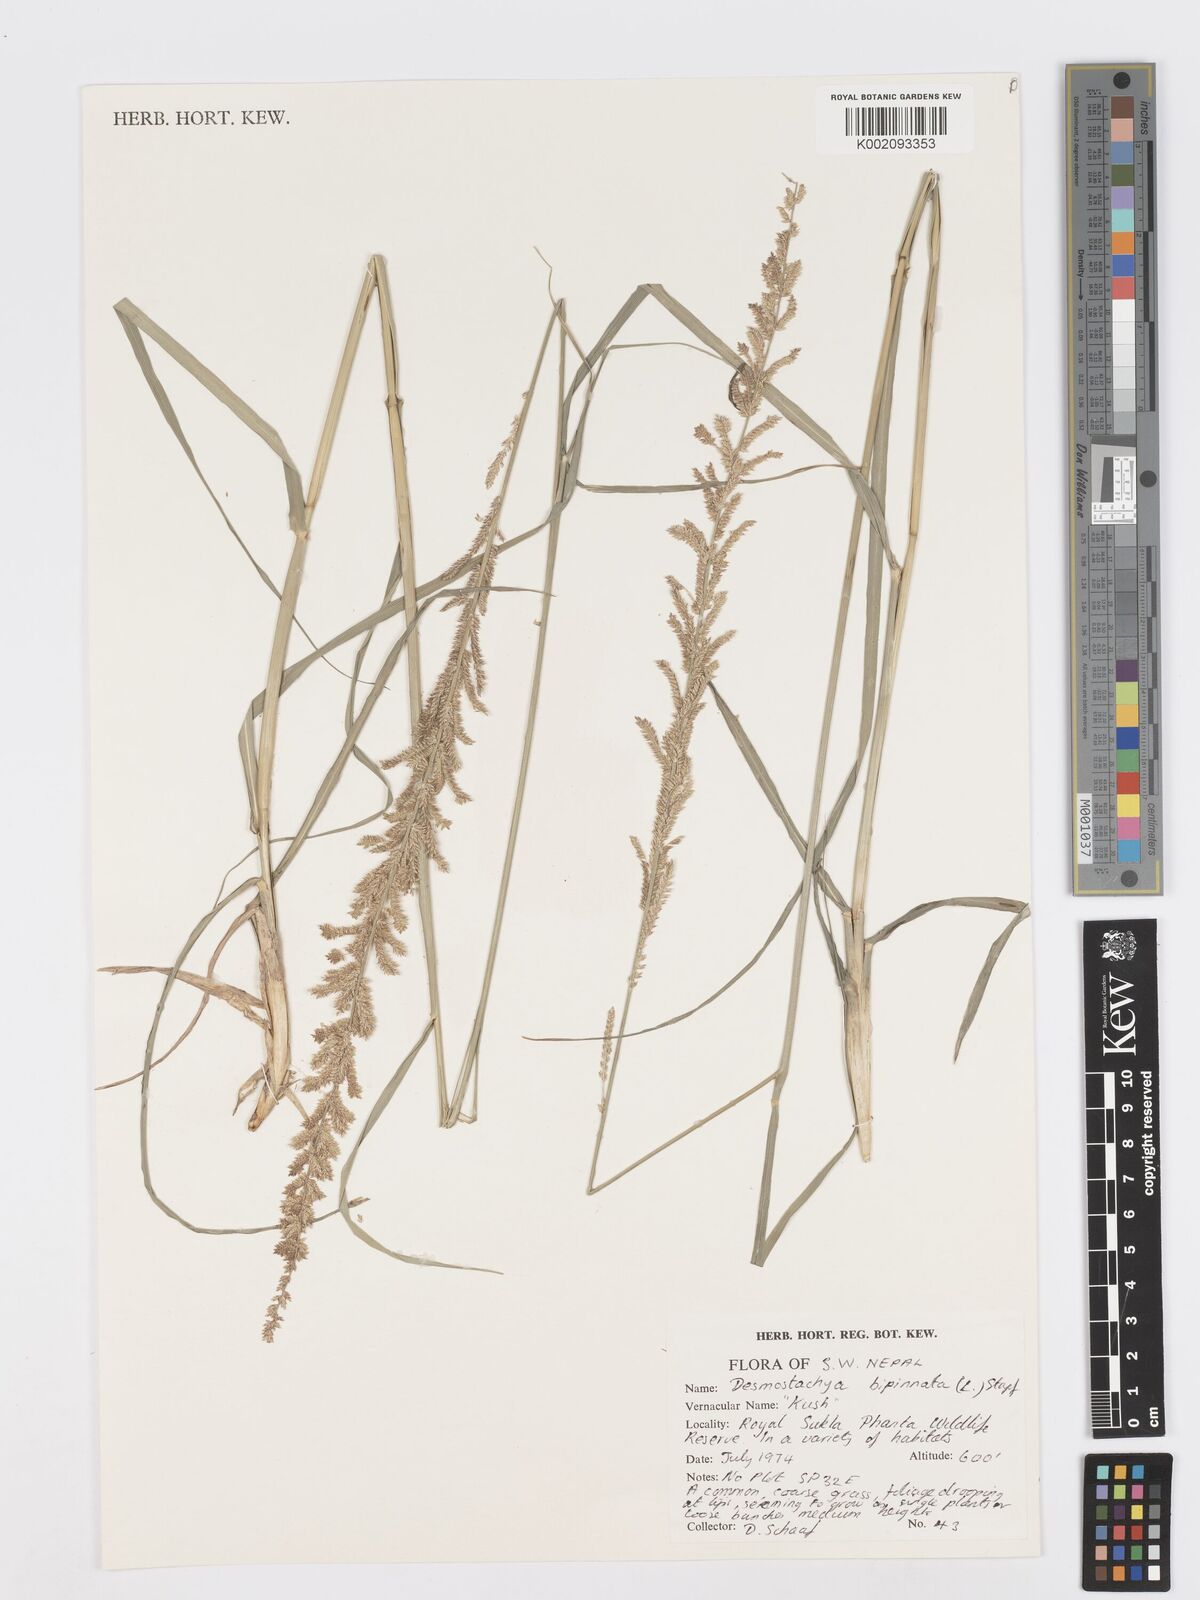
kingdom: Plantae
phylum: Tracheophyta
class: Liliopsida
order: Poales
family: Poaceae
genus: Desmostachya
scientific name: Desmostachya bipinnata
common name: Crowfoot grass
